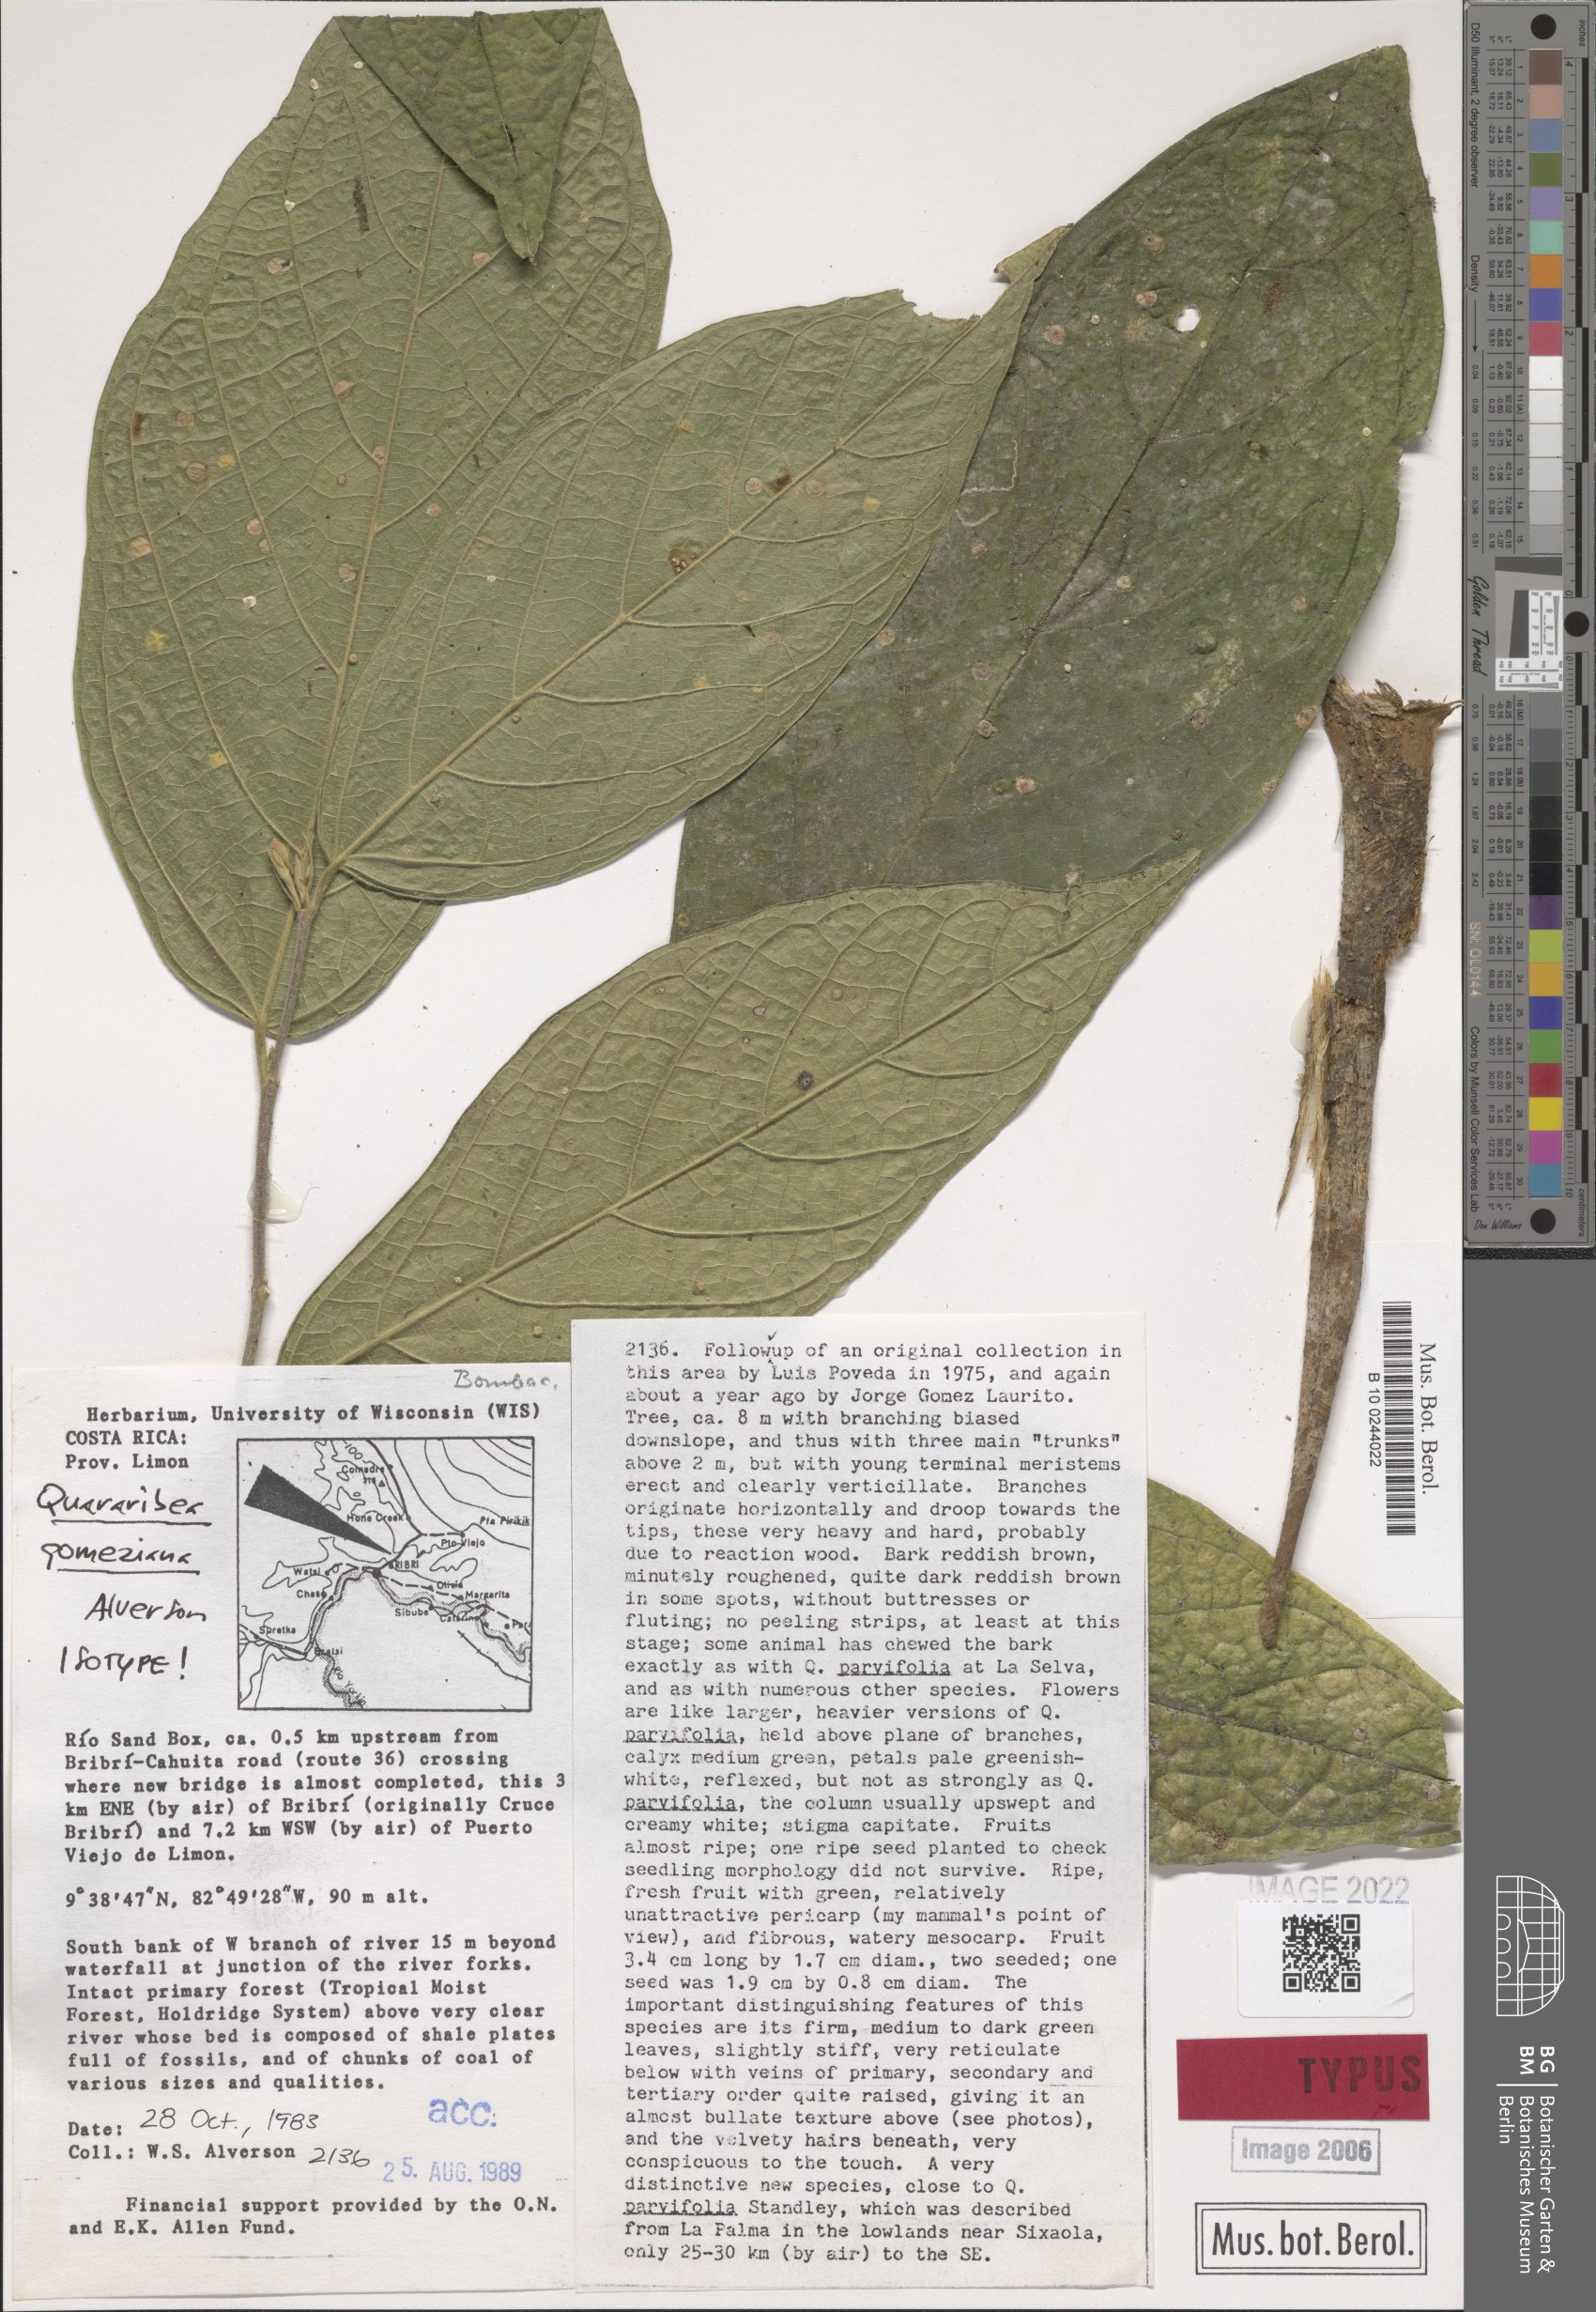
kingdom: Plantae
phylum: Tracheophyta
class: Magnoliopsida
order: Malvales
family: Malvaceae
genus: Quararibea
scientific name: Quararibea gomeziana
